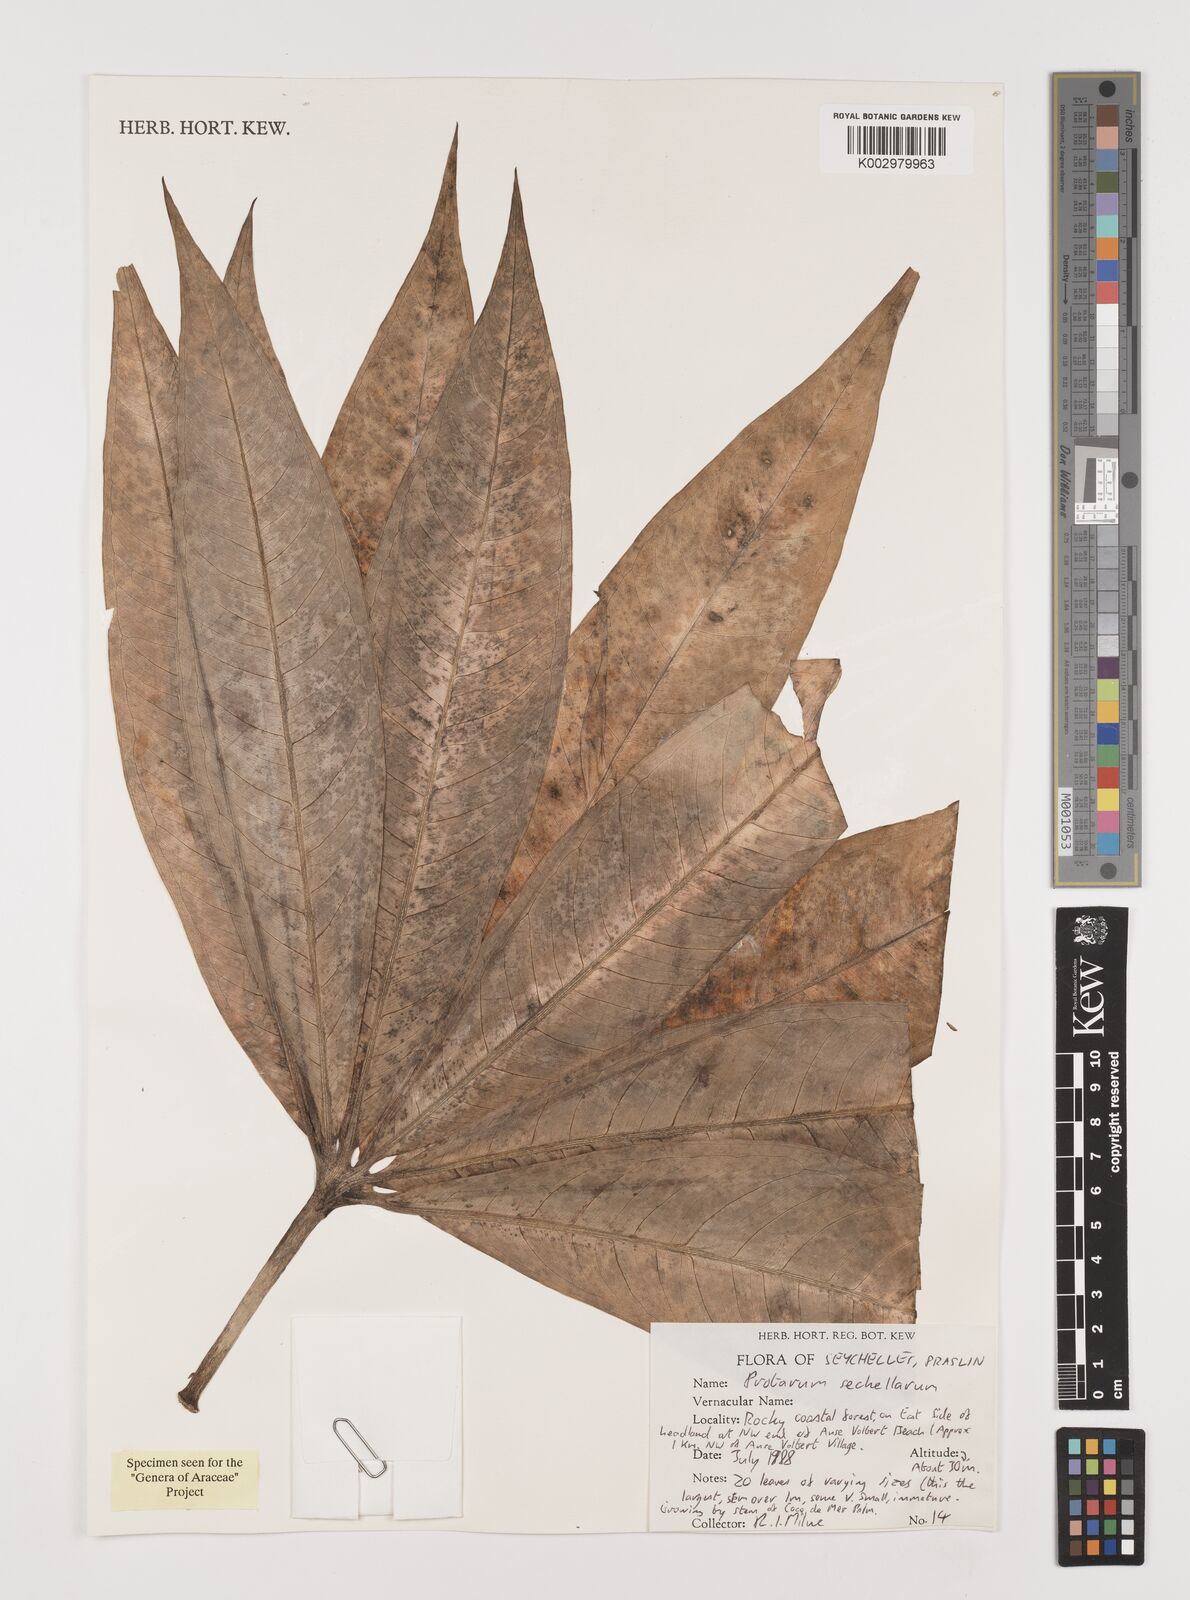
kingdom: Plantae
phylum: Tracheophyta
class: Liliopsida
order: Alismatales
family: Araceae
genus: Protarum
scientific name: Protarum sechellarum
